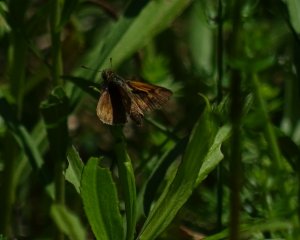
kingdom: Animalia
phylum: Arthropoda
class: Insecta
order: Lepidoptera
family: Hesperiidae
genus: Polites
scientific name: Polites themistocles
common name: Tawny-edged Skipper
